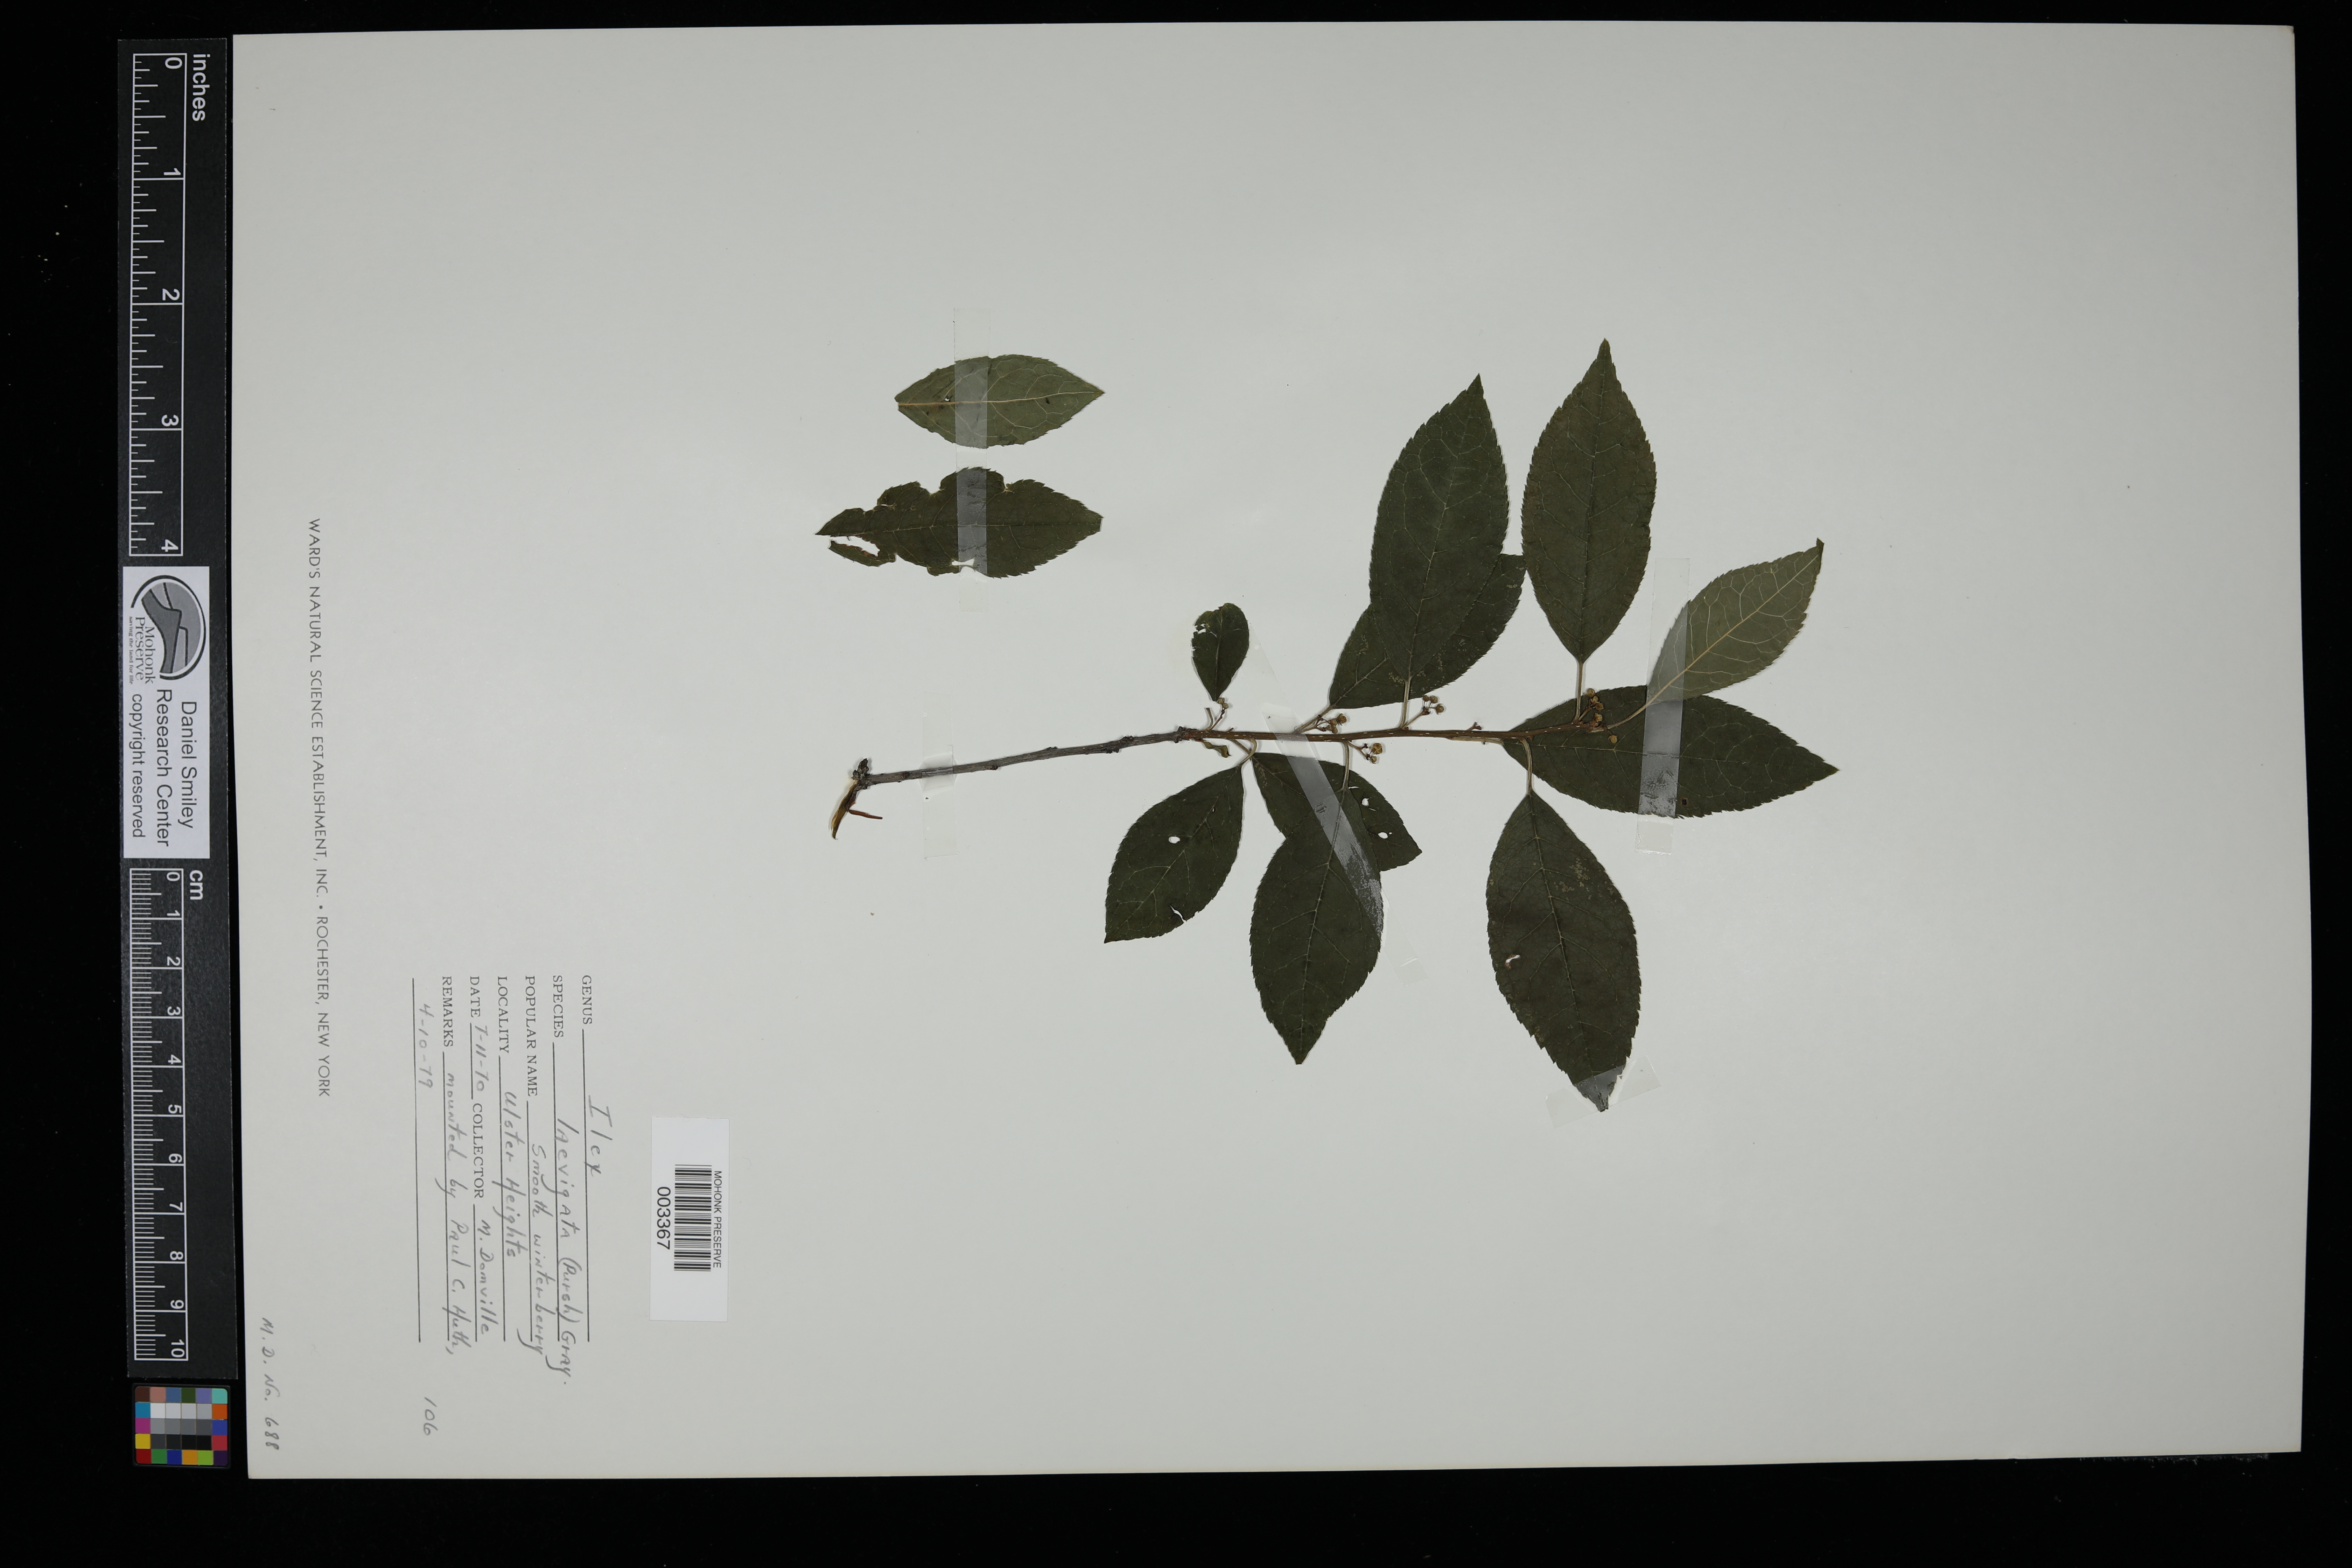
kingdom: Plantae
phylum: Tracheophyta
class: Magnoliopsida
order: Aquifoliales
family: Aquifoliaceae
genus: Ilex
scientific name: Ilex laevigata
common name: Smooth winterberry
